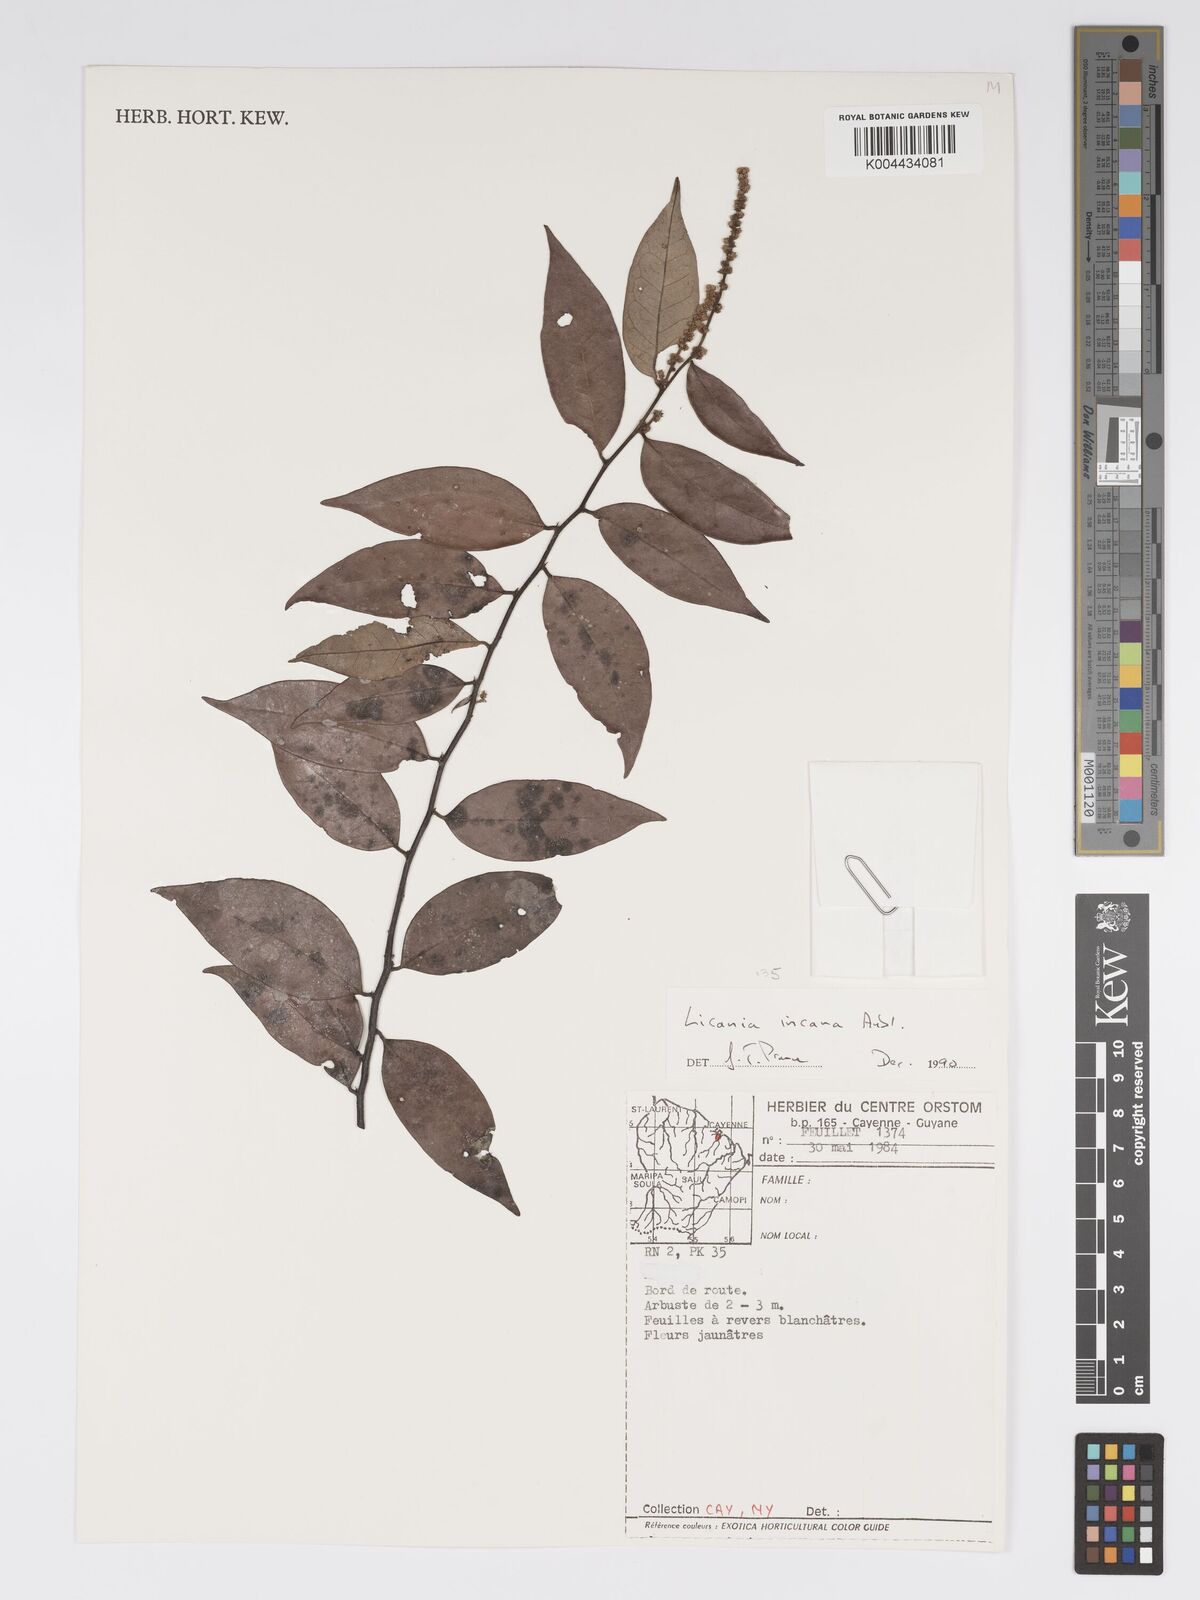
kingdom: Plantae
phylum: Tracheophyta
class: Magnoliopsida
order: Malpighiales
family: Chrysobalanaceae
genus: Licania
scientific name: Licania incana
